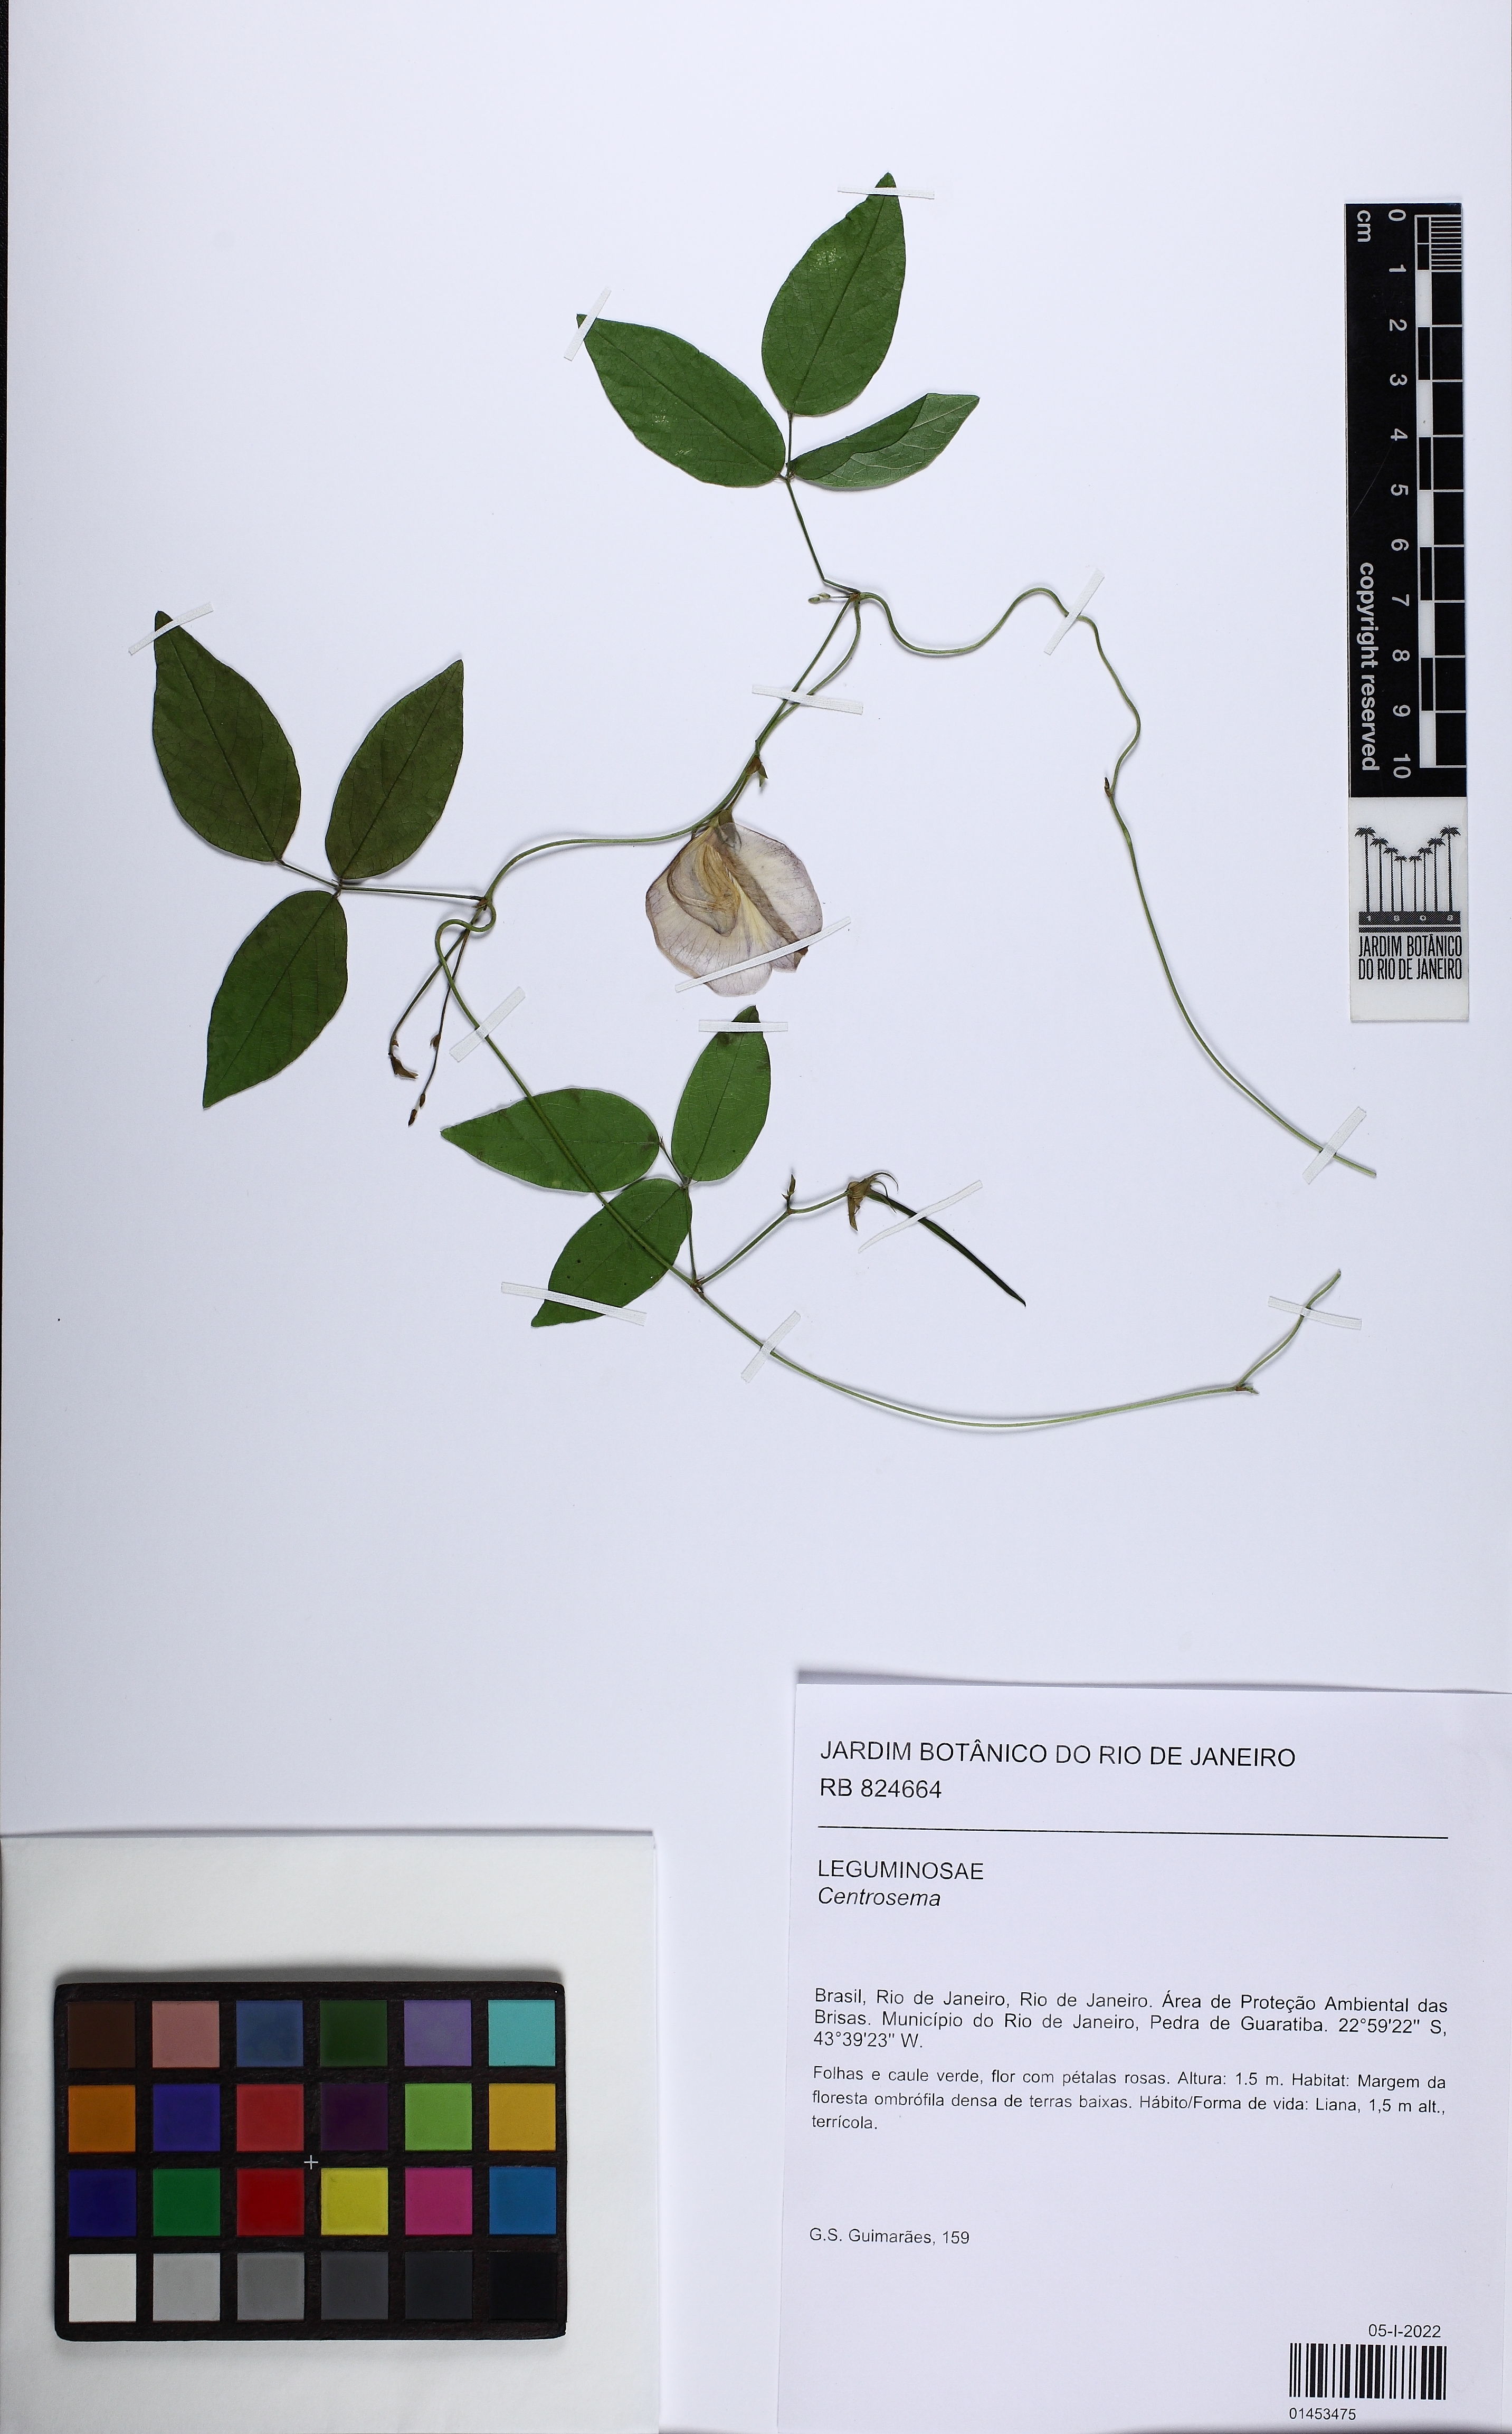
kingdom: Plantae
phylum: Tracheophyta
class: Magnoliopsida
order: Fabales
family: Fabaceae
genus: Centrosema
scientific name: Centrosema
